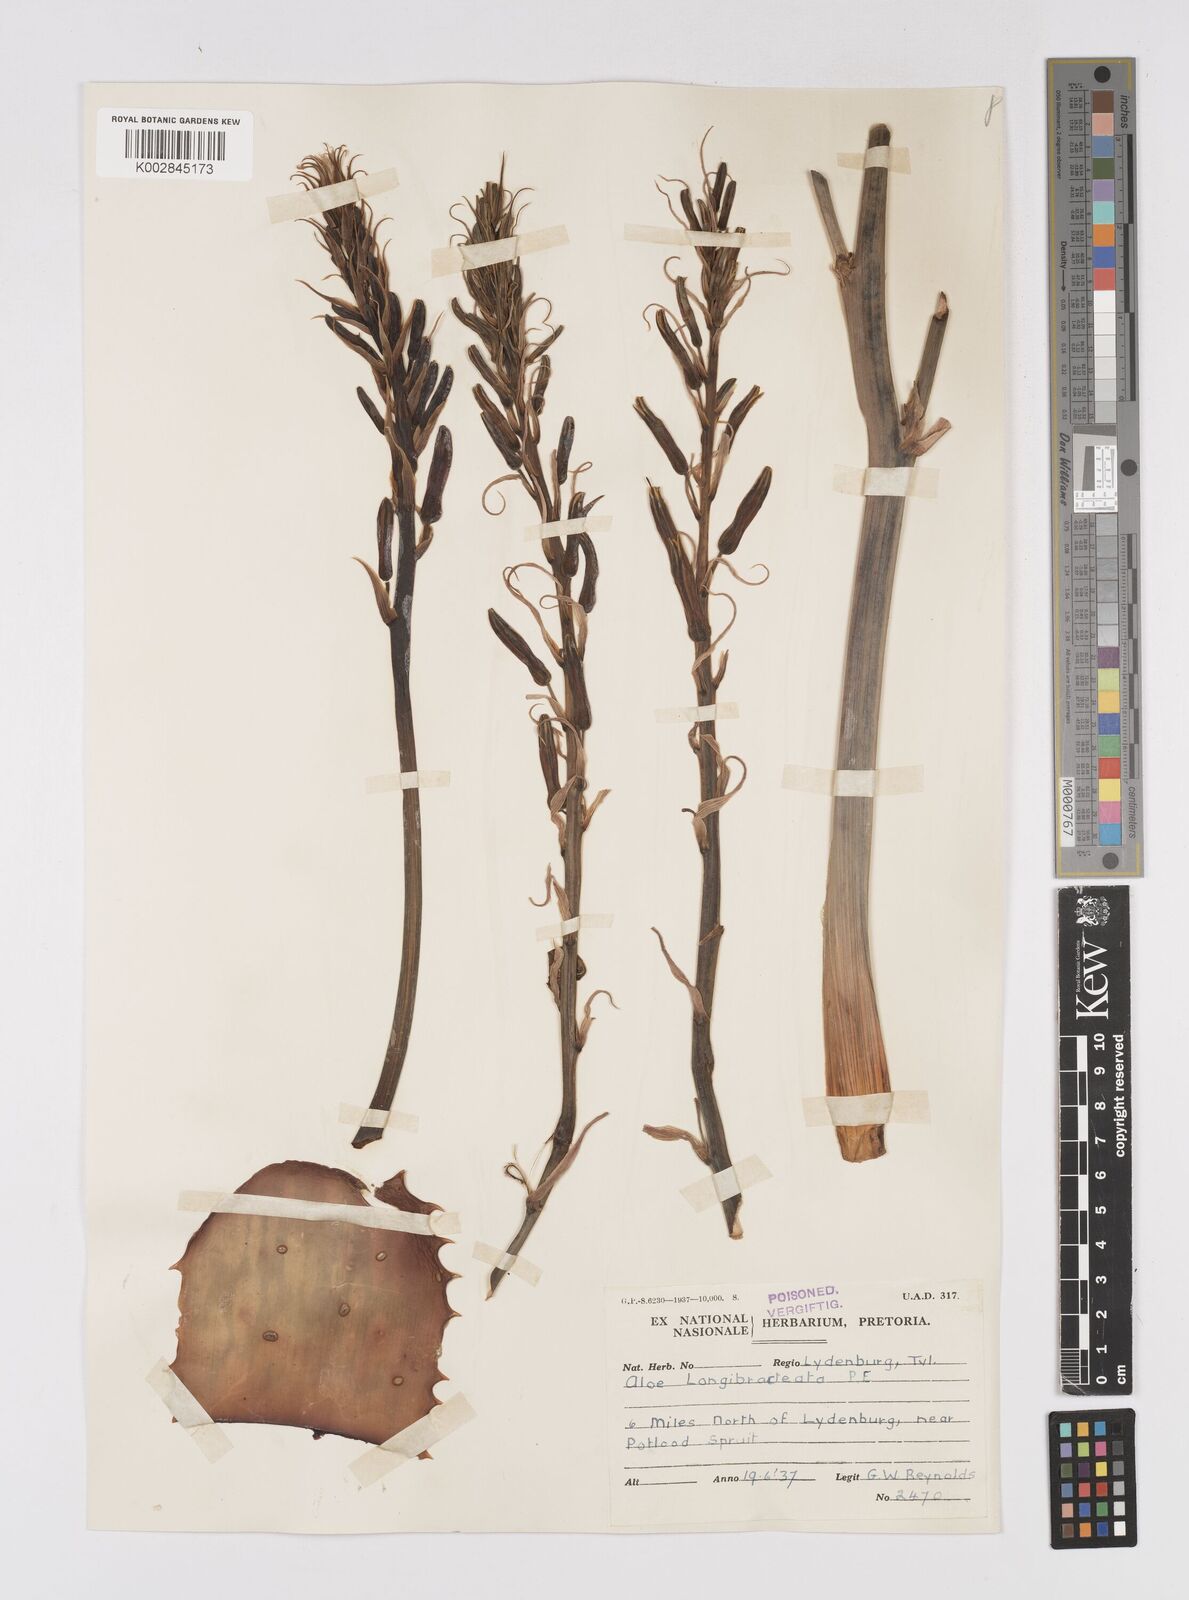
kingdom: Plantae
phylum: Tracheophyta
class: Liliopsida
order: Asparagales
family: Asphodelaceae
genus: Aloe
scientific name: Aloe longibracteata
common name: Limpopo spotted aloe
